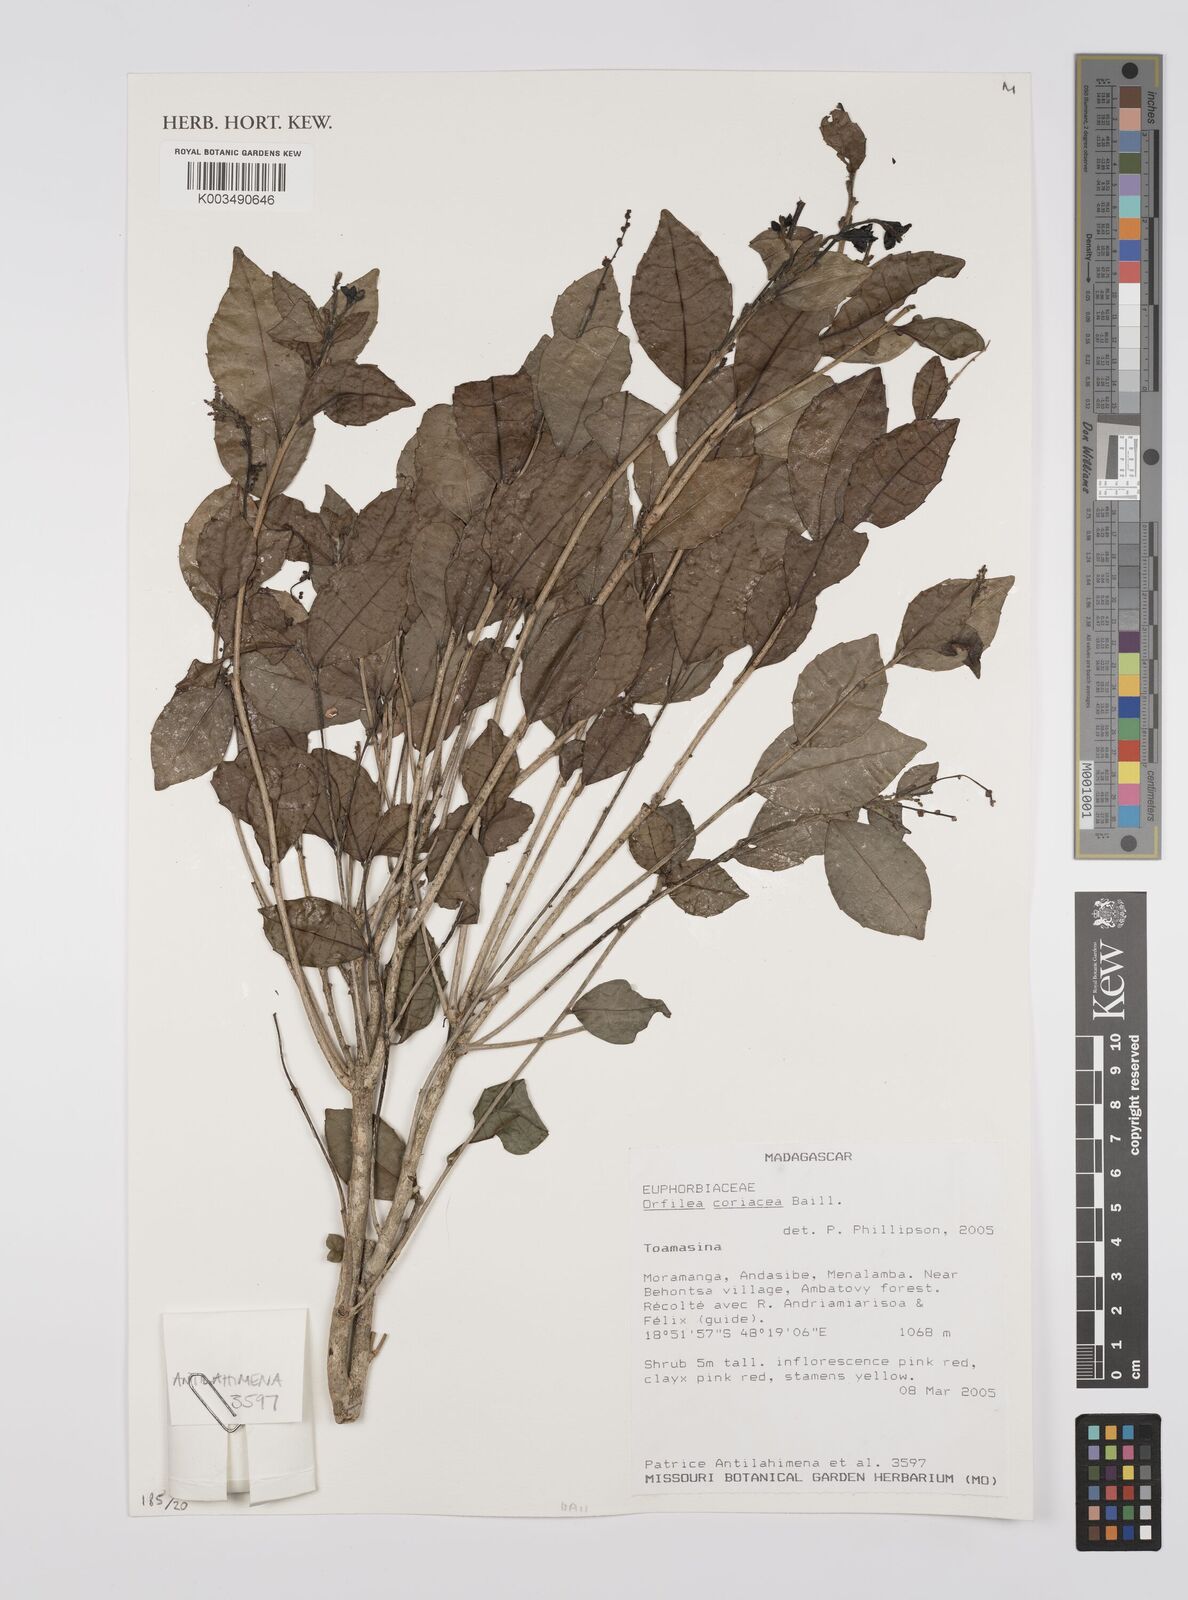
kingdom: Plantae
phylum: Tracheophyta
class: Magnoliopsida
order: Malpighiales
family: Euphorbiaceae
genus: Orfilea
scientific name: Orfilea coriacea
